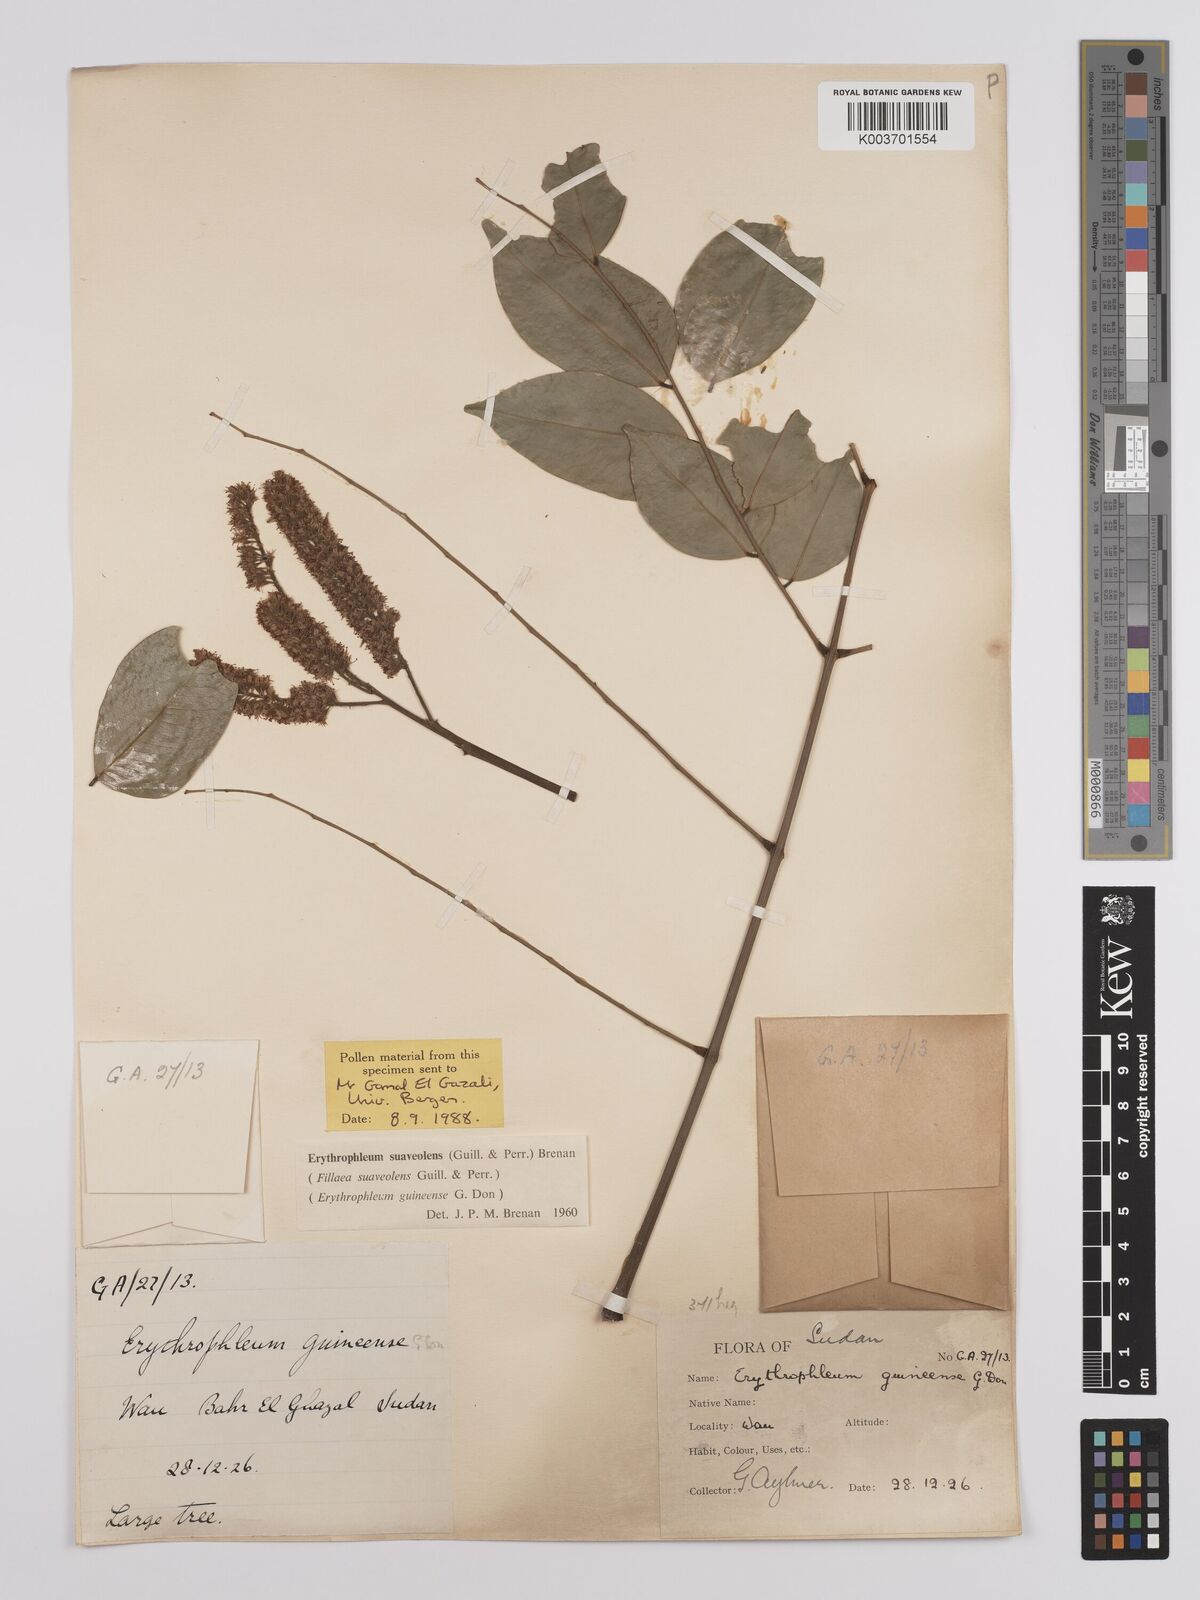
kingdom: Plantae
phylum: Tracheophyta
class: Magnoliopsida
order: Fabales
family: Fabaceae
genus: Erythrophleum
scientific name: Erythrophleum suaveolens
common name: Ordeal tree
